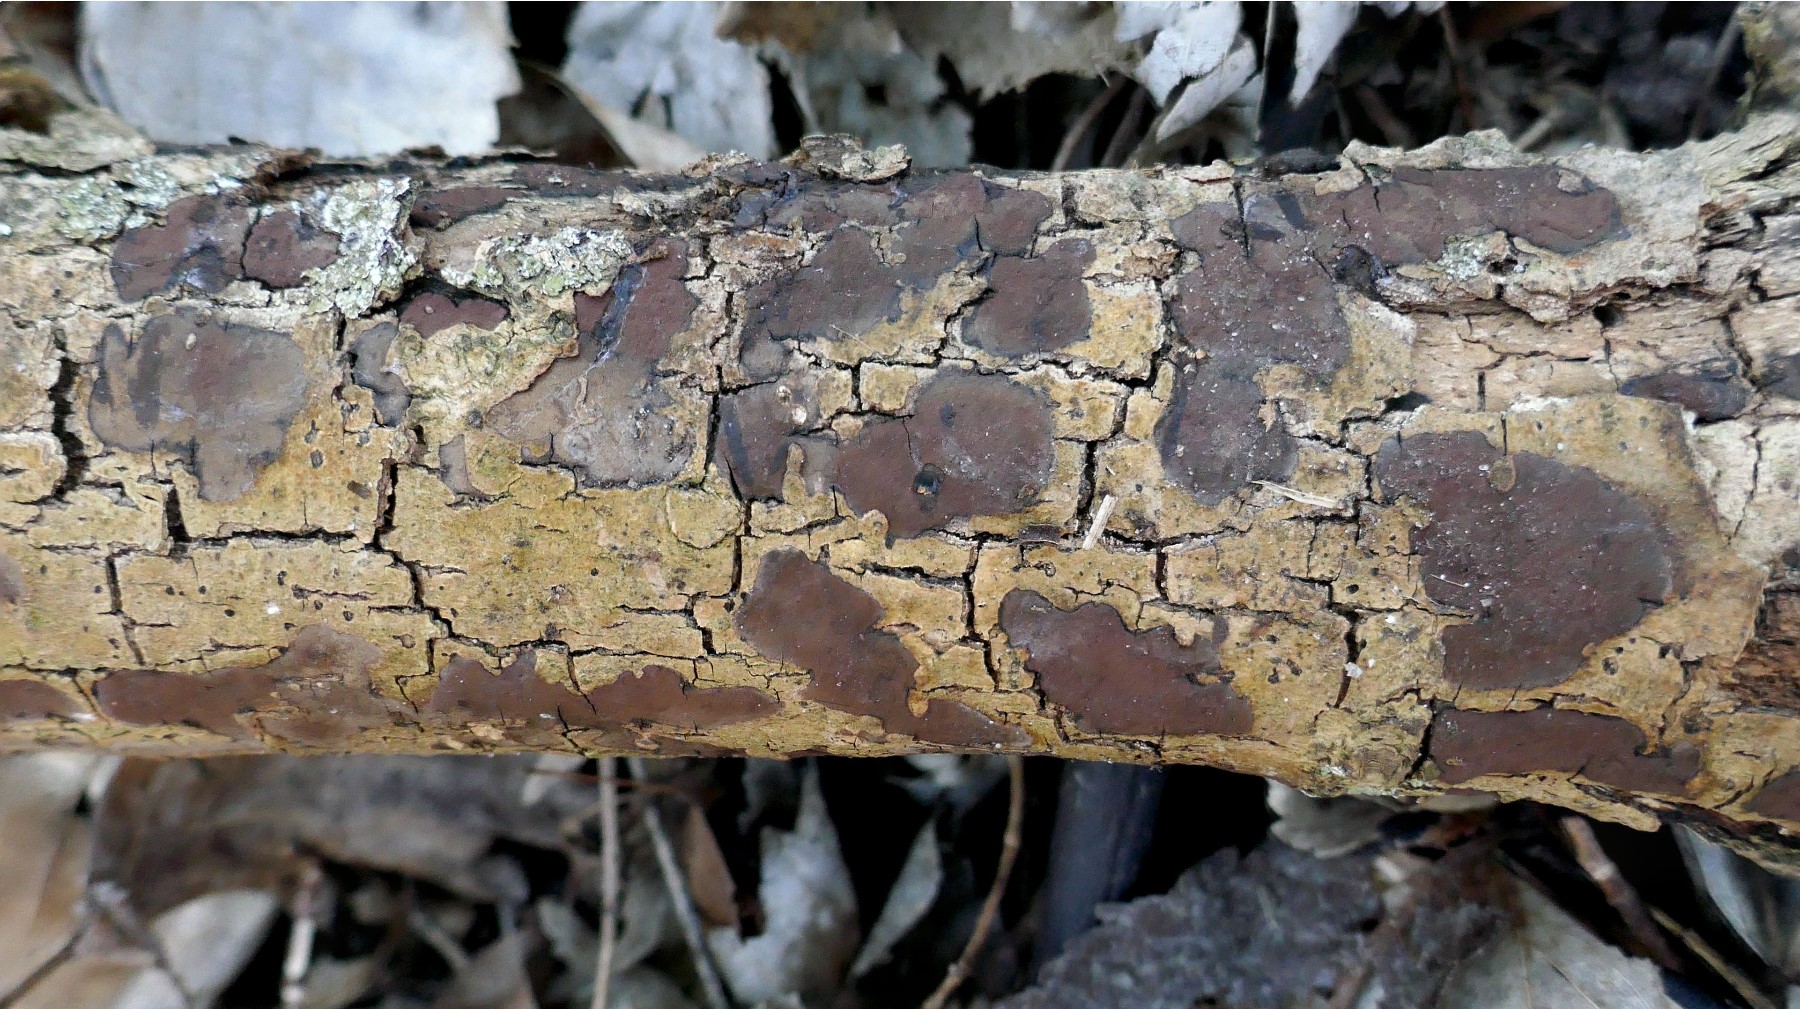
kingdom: Fungi
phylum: Ascomycota
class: Sordariomycetes
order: Xylariales
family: Hypoxylaceae
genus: Hypoxylon
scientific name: Hypoxylon petriniae
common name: nedsænket kulbær
